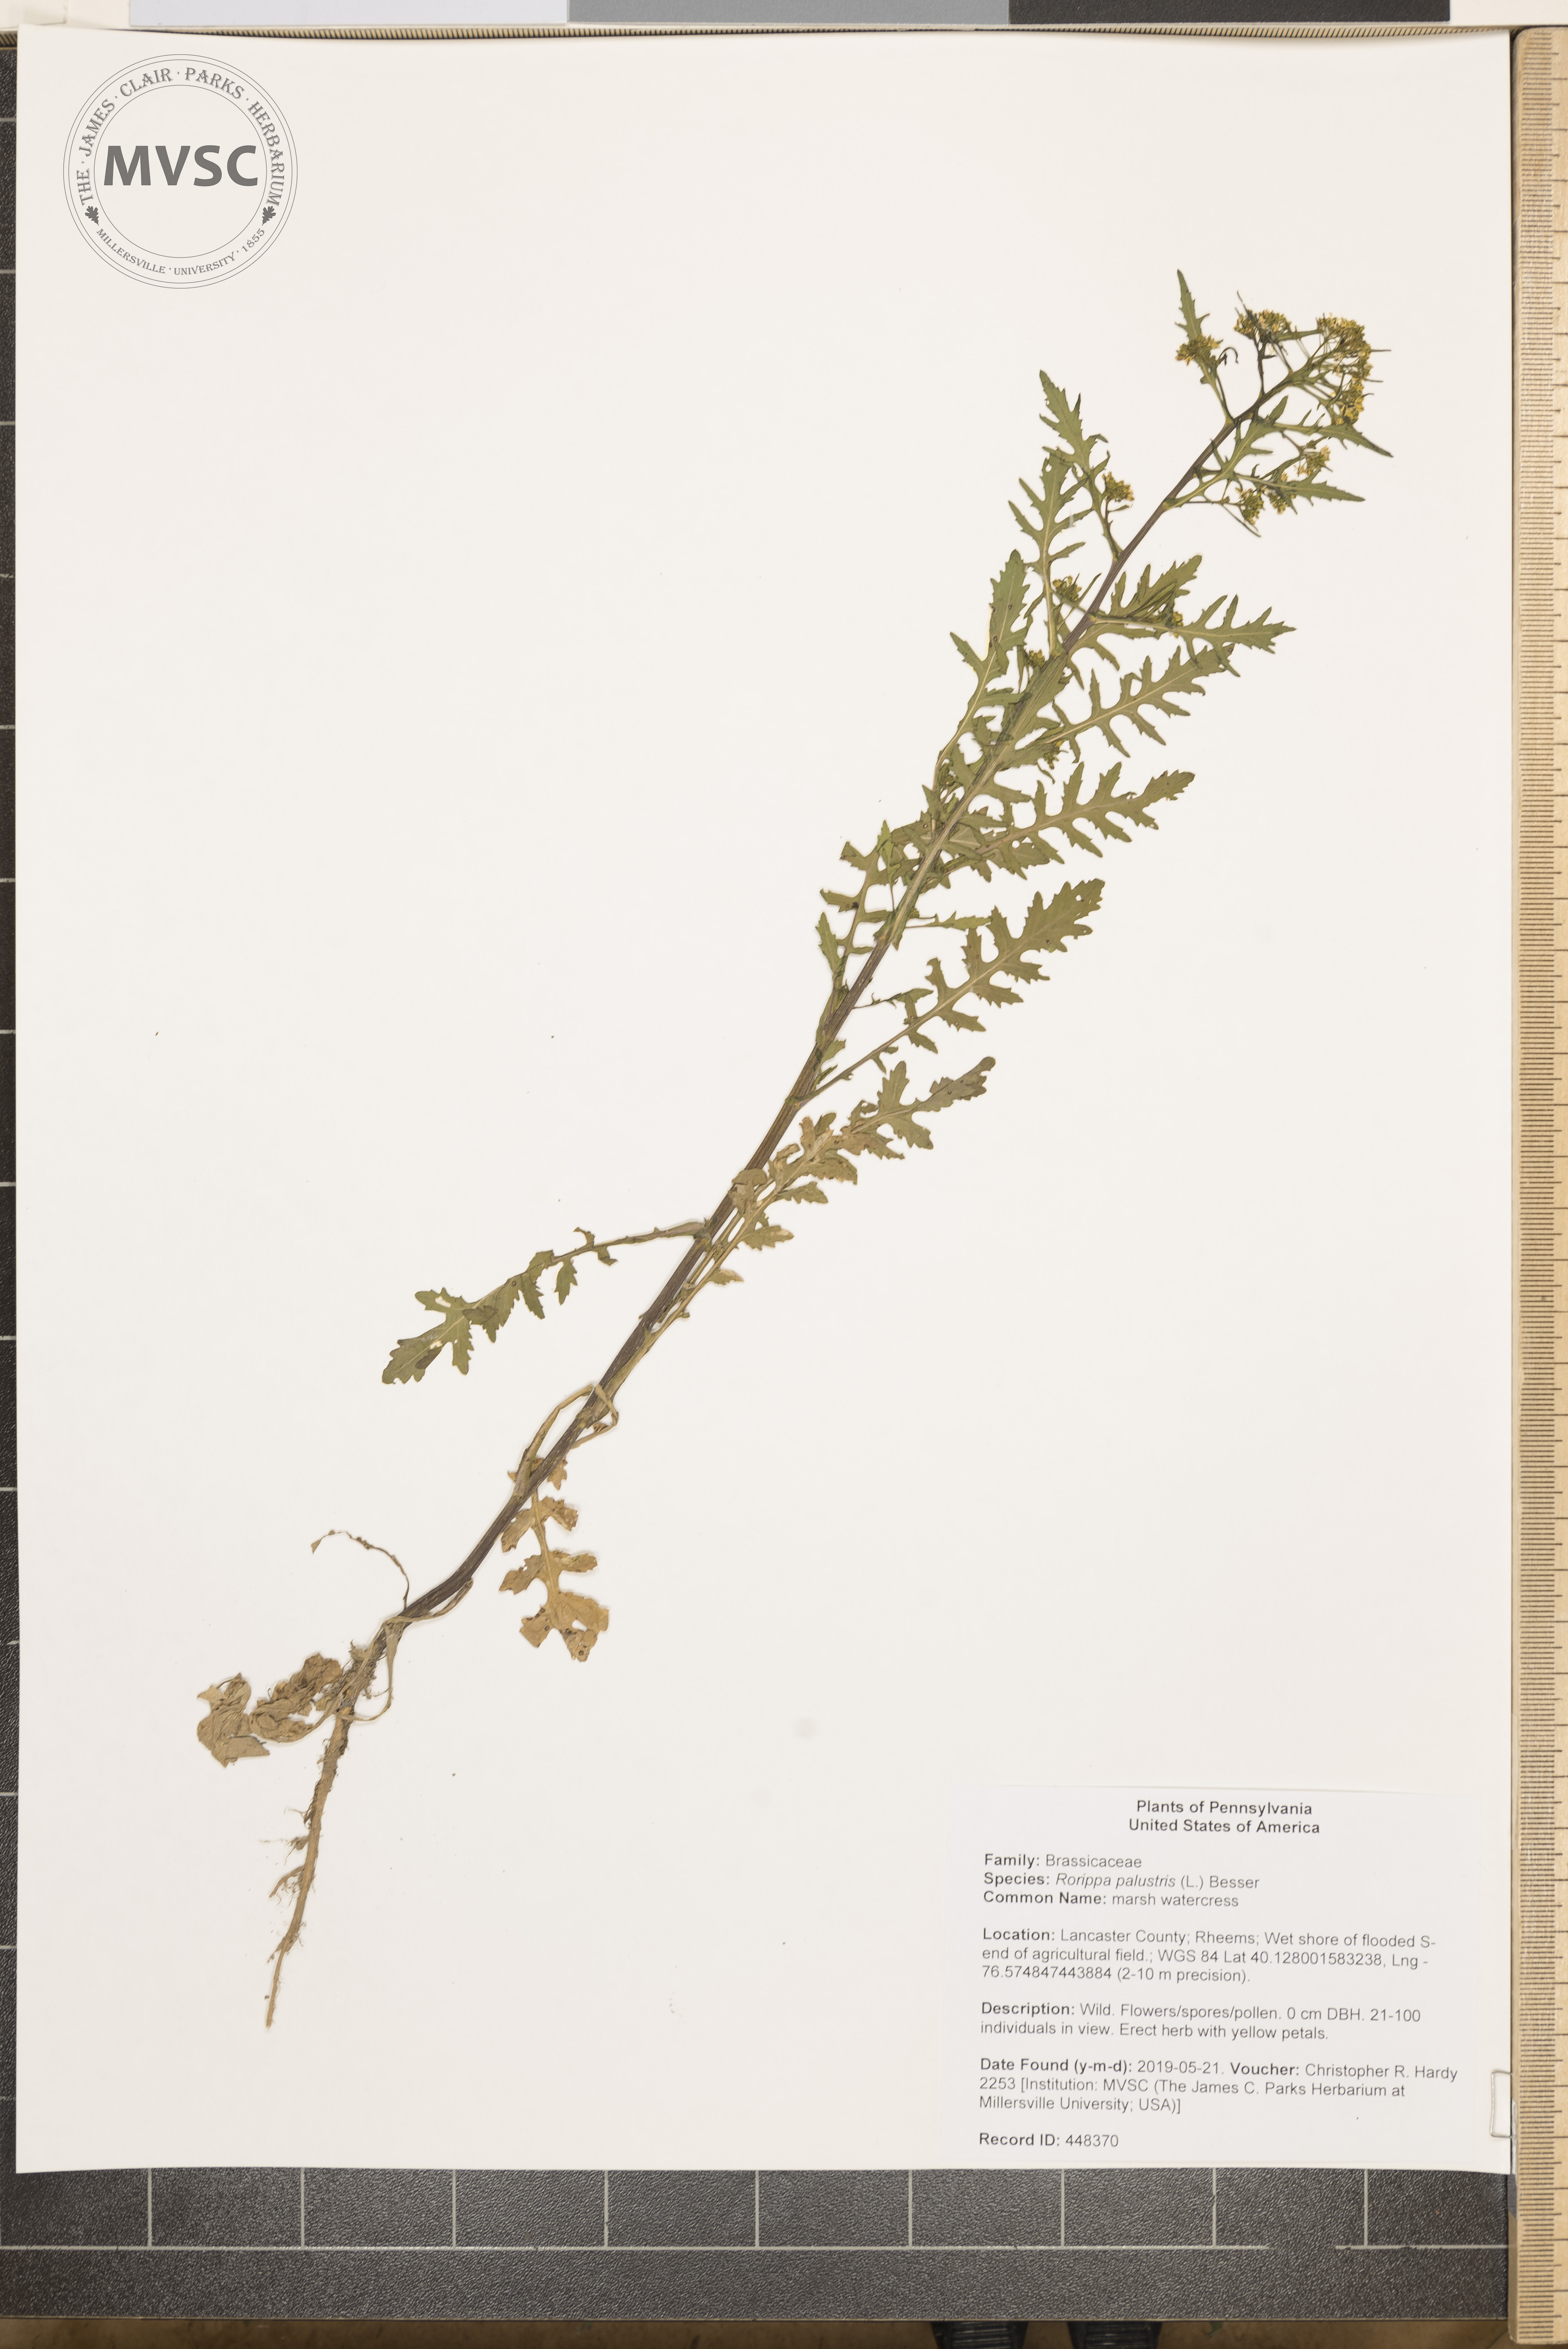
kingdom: Plantae
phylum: Tracheophyta
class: Magnoliopsida
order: Brassicales
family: Brassicaceae
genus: Rorippa
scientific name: Rorippa palustris
